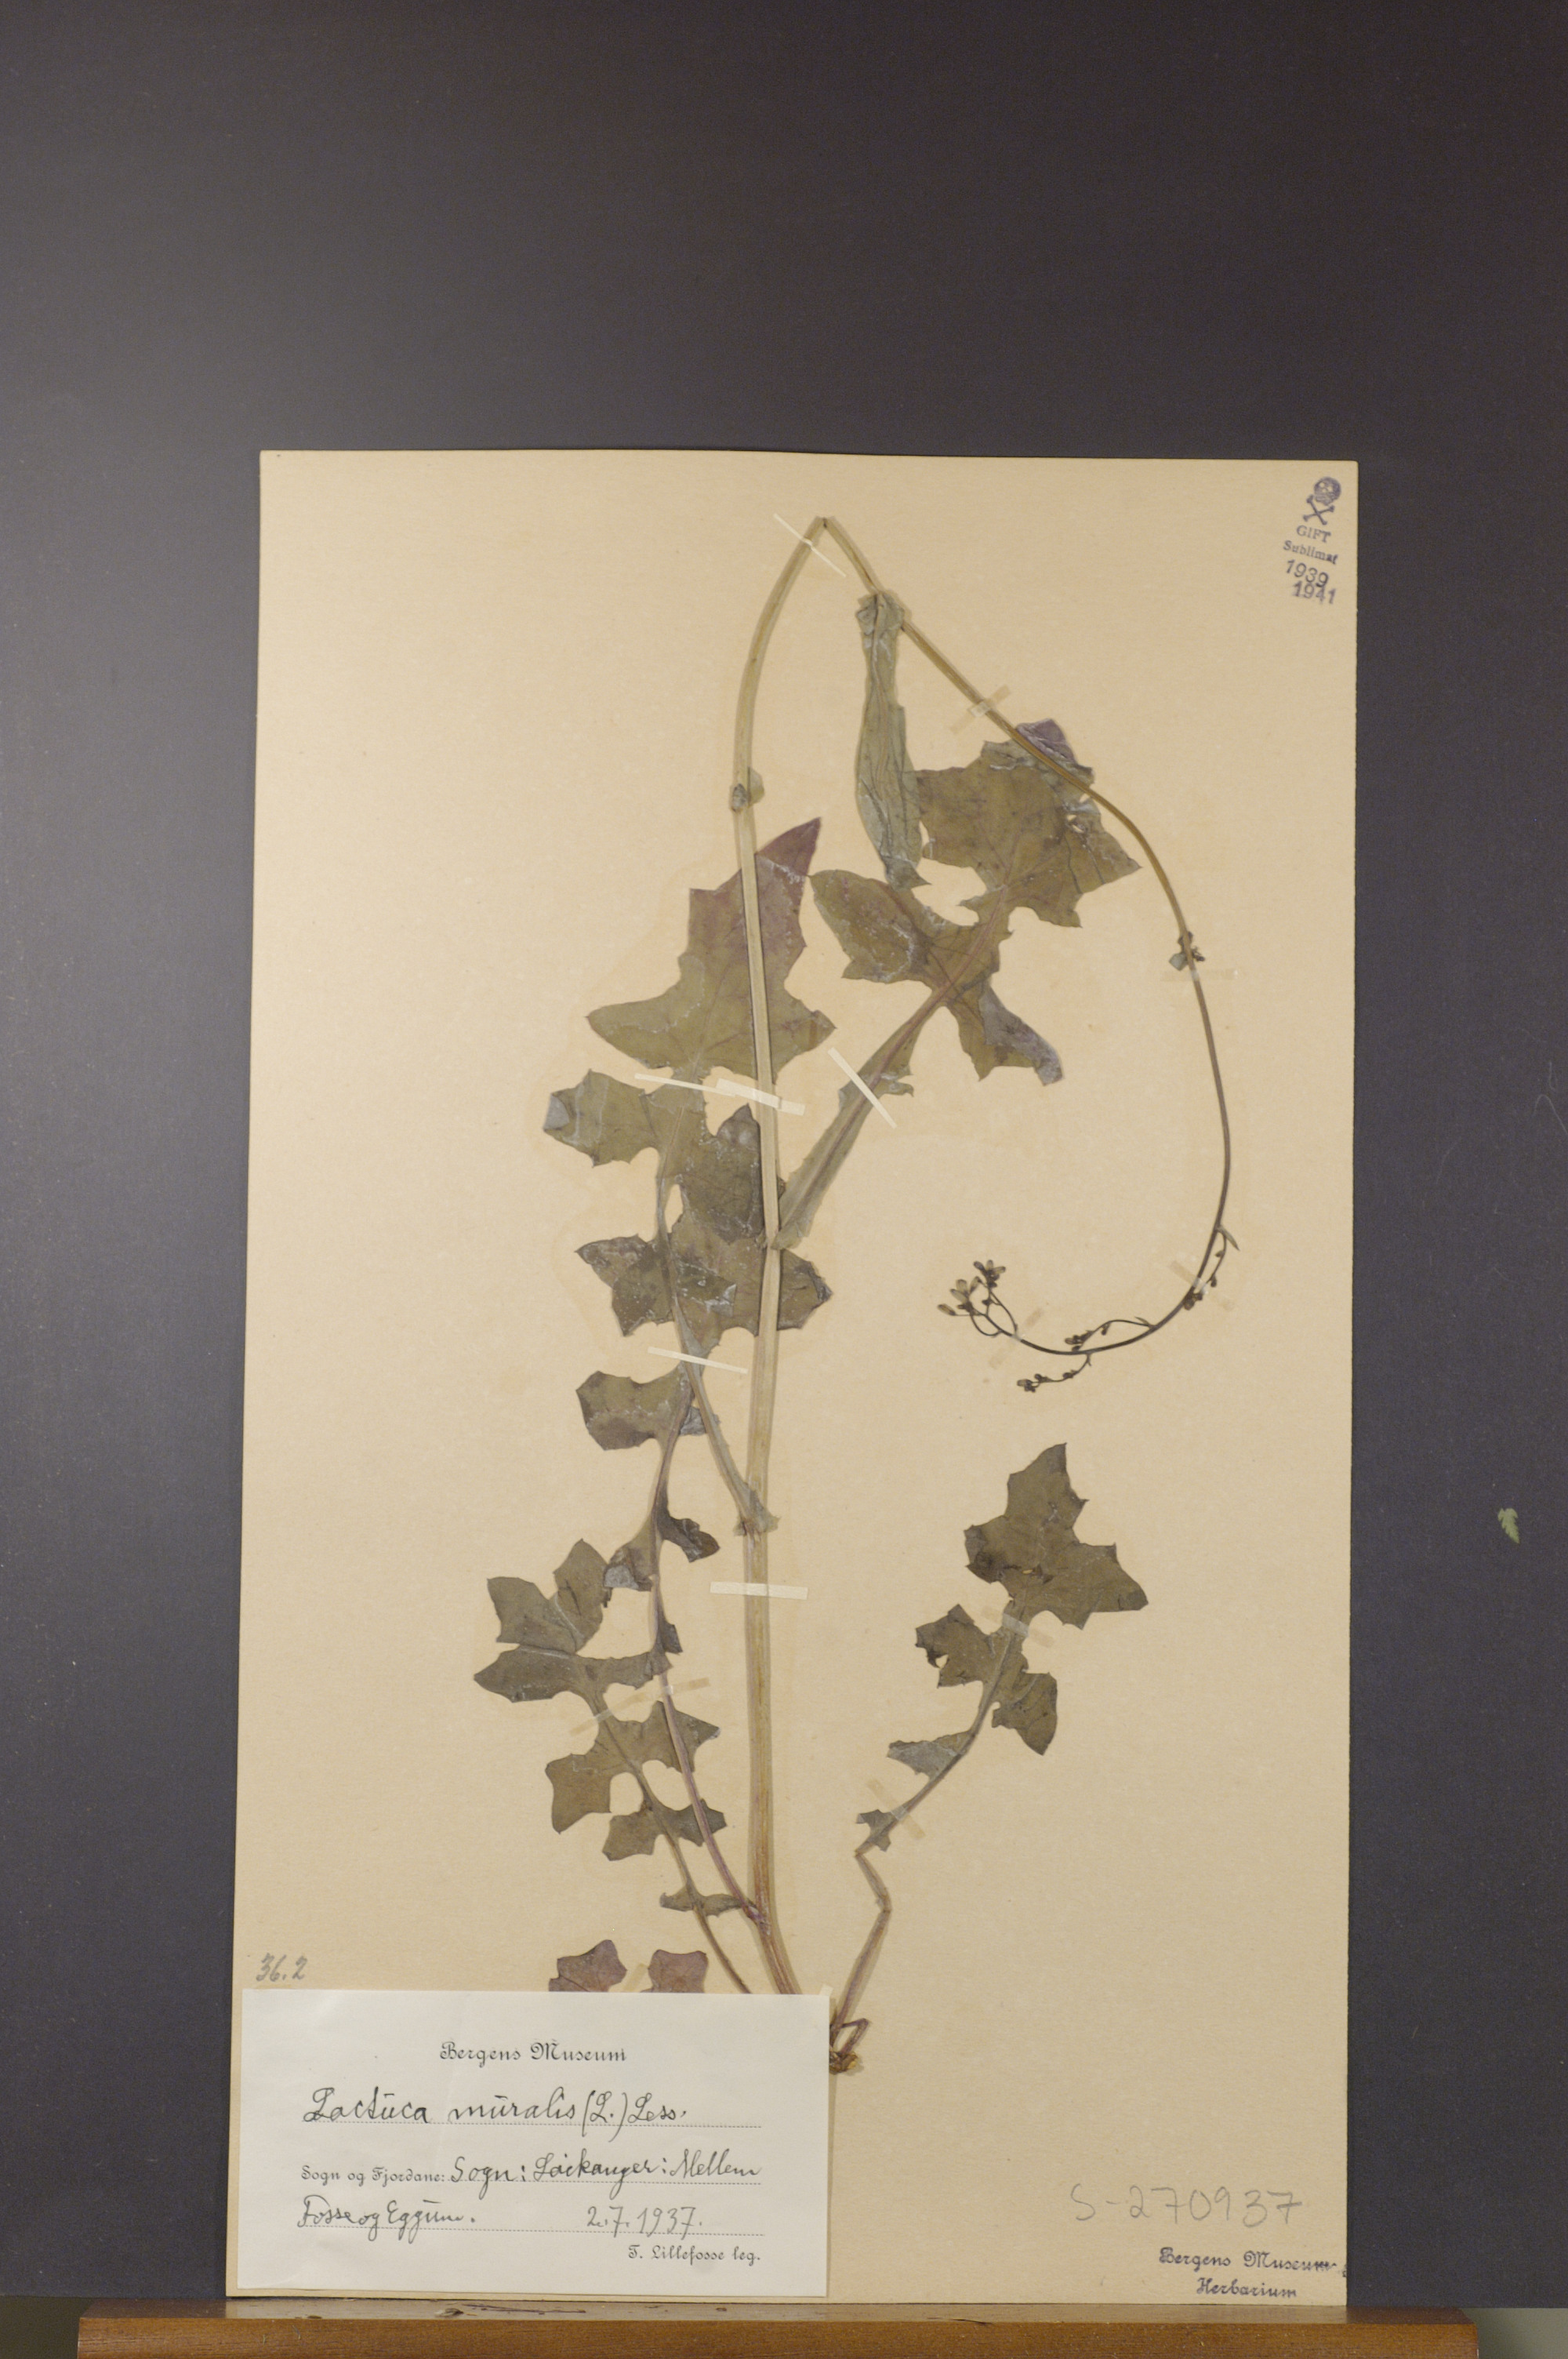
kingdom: Plantae
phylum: Tracheophyta
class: Magnoliopsida
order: Asterales
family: Asteraceae
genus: Mycelis
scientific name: Mycelis muralis
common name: Wall lettuce
